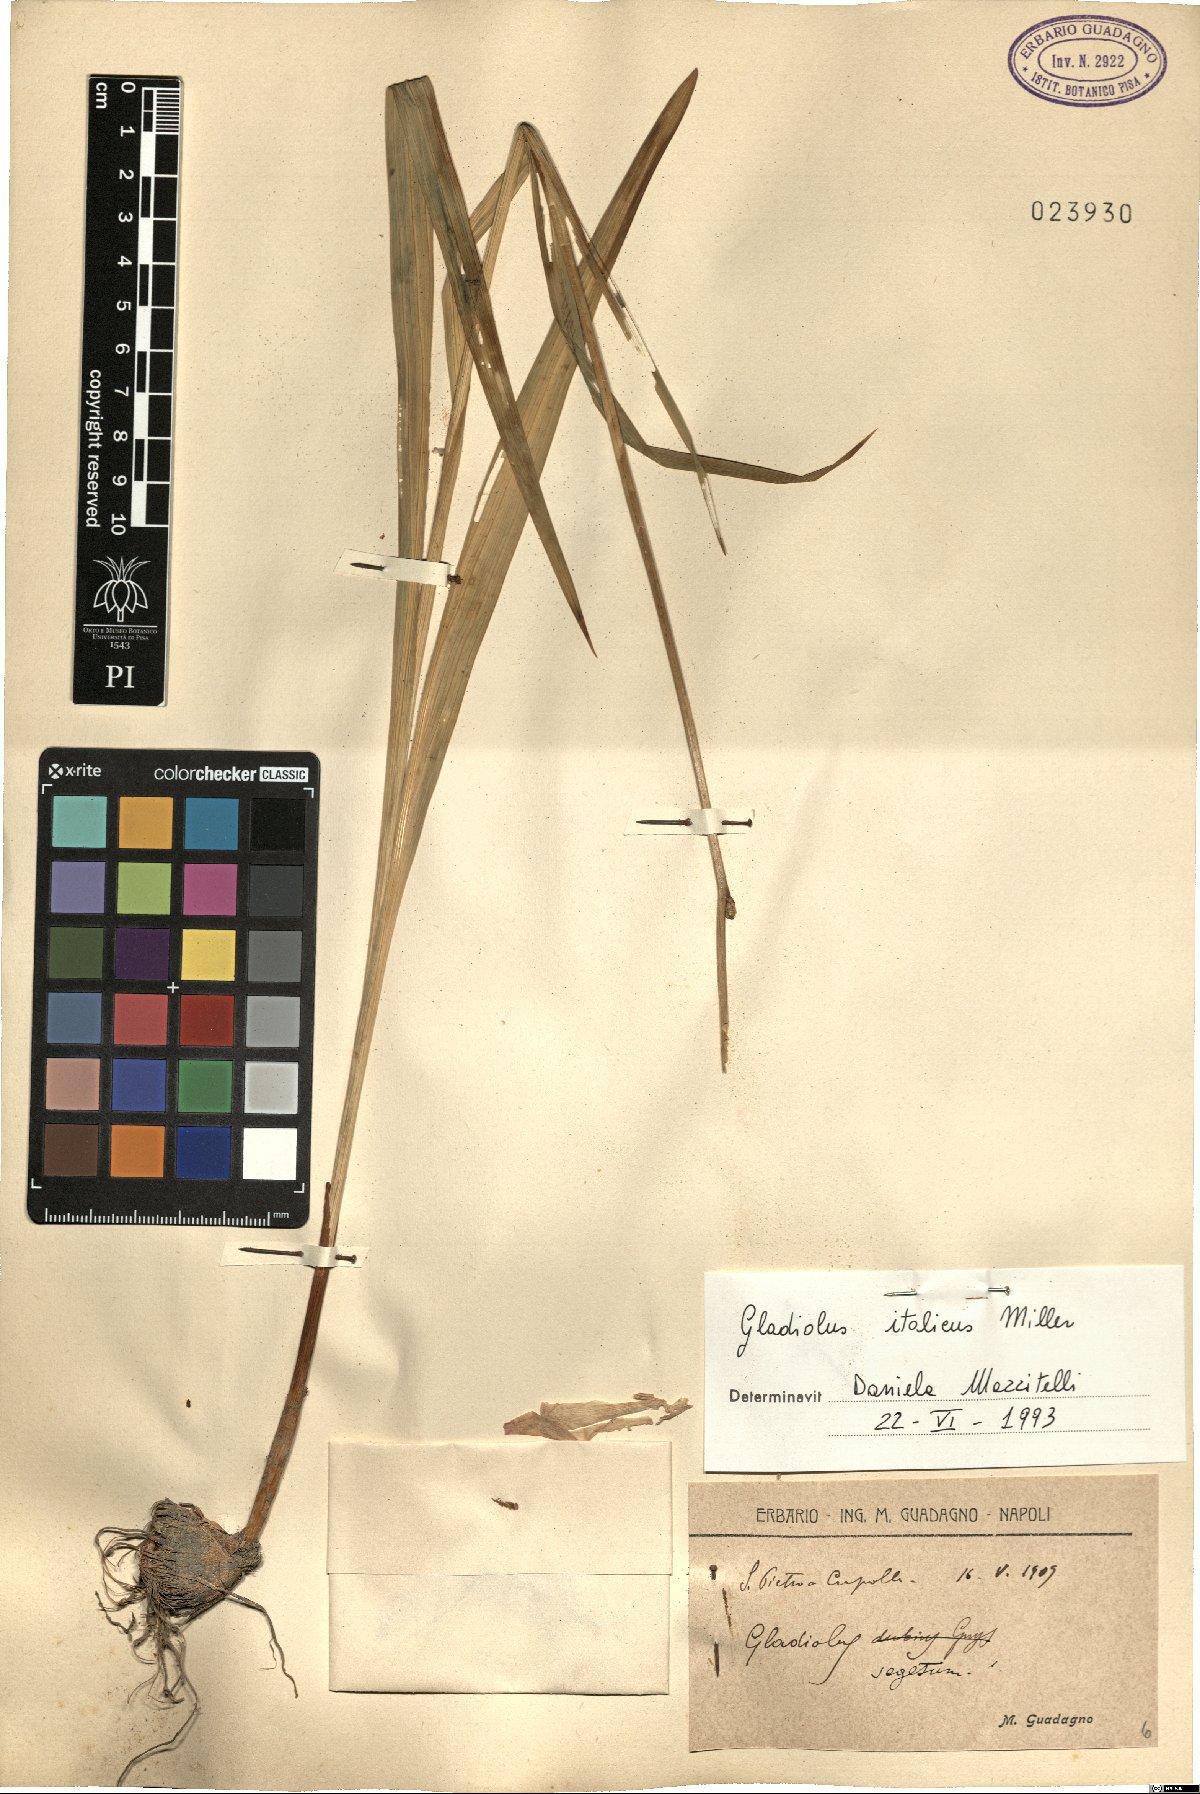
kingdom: Plantae
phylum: Tracheophyta
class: Liliopsida
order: Asparagales
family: Iridaceae
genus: Gladiolus
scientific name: Gladiolus italicus
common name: Field gladiolus
